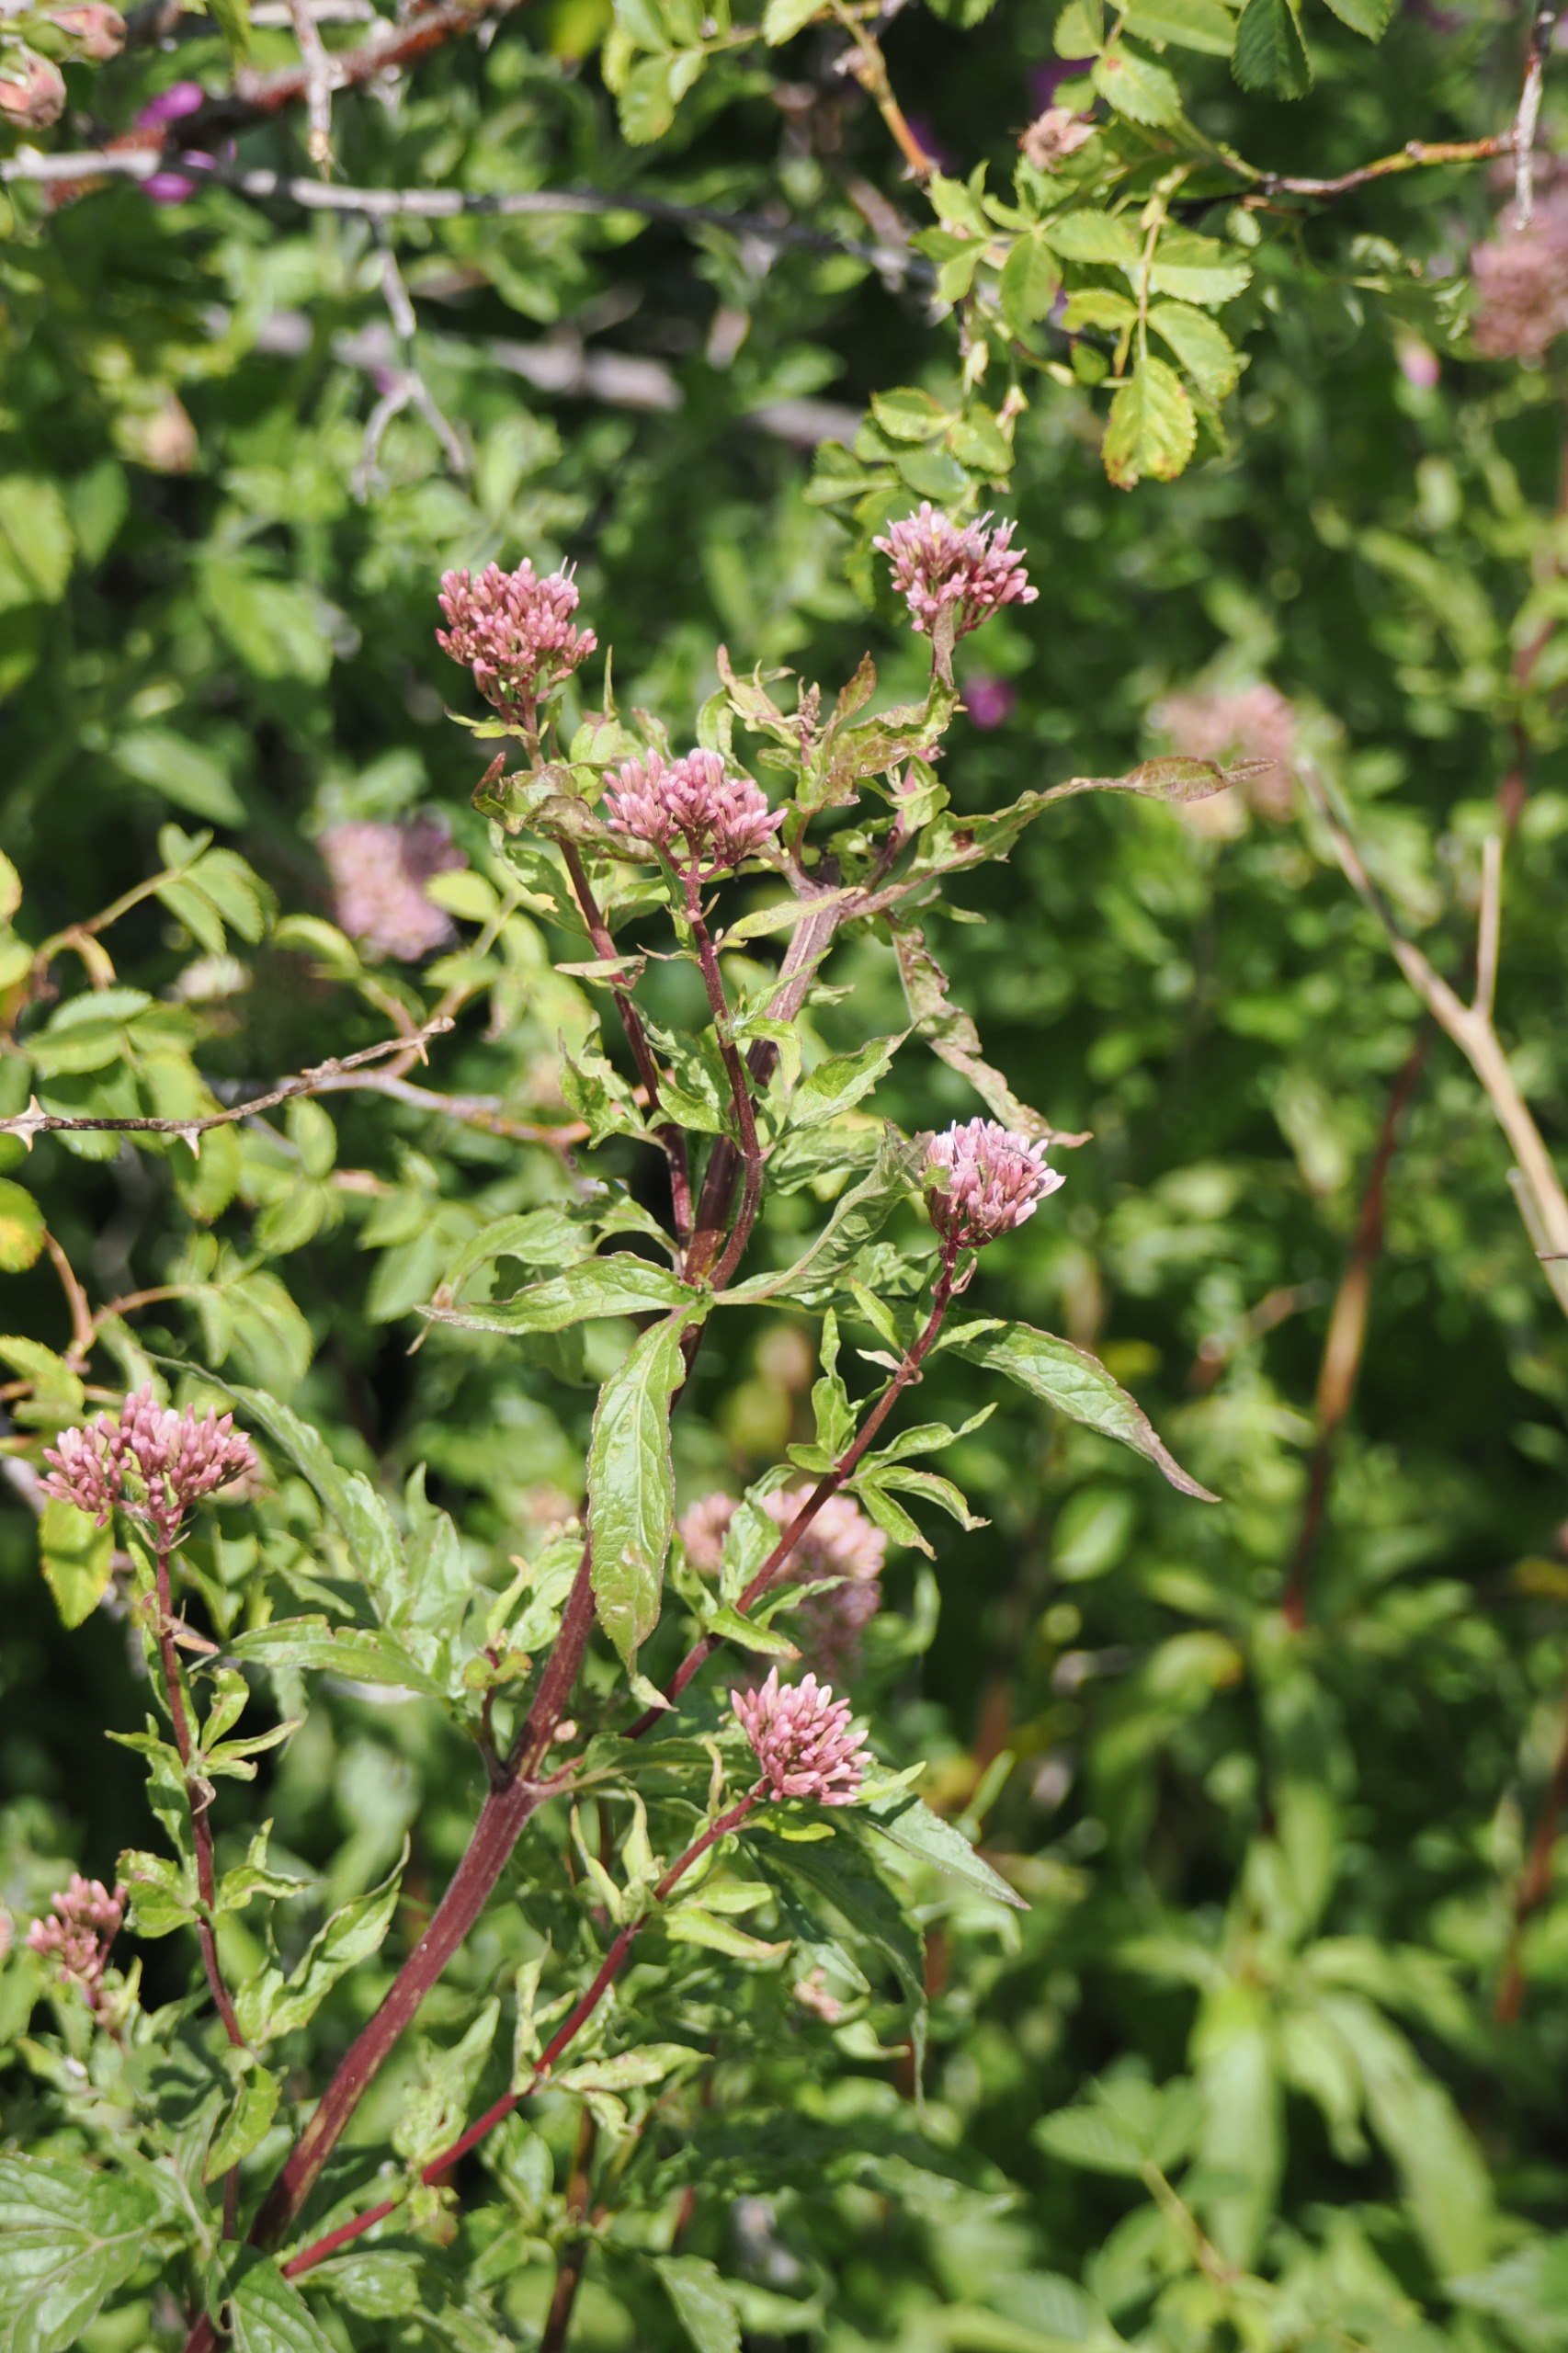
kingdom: Plantae
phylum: Tracheophyta
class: Magnoliopsida
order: Asterales
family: Asteraceae
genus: Eupatorium
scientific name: Eupatorium cannabinum
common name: Hjortetrøst
